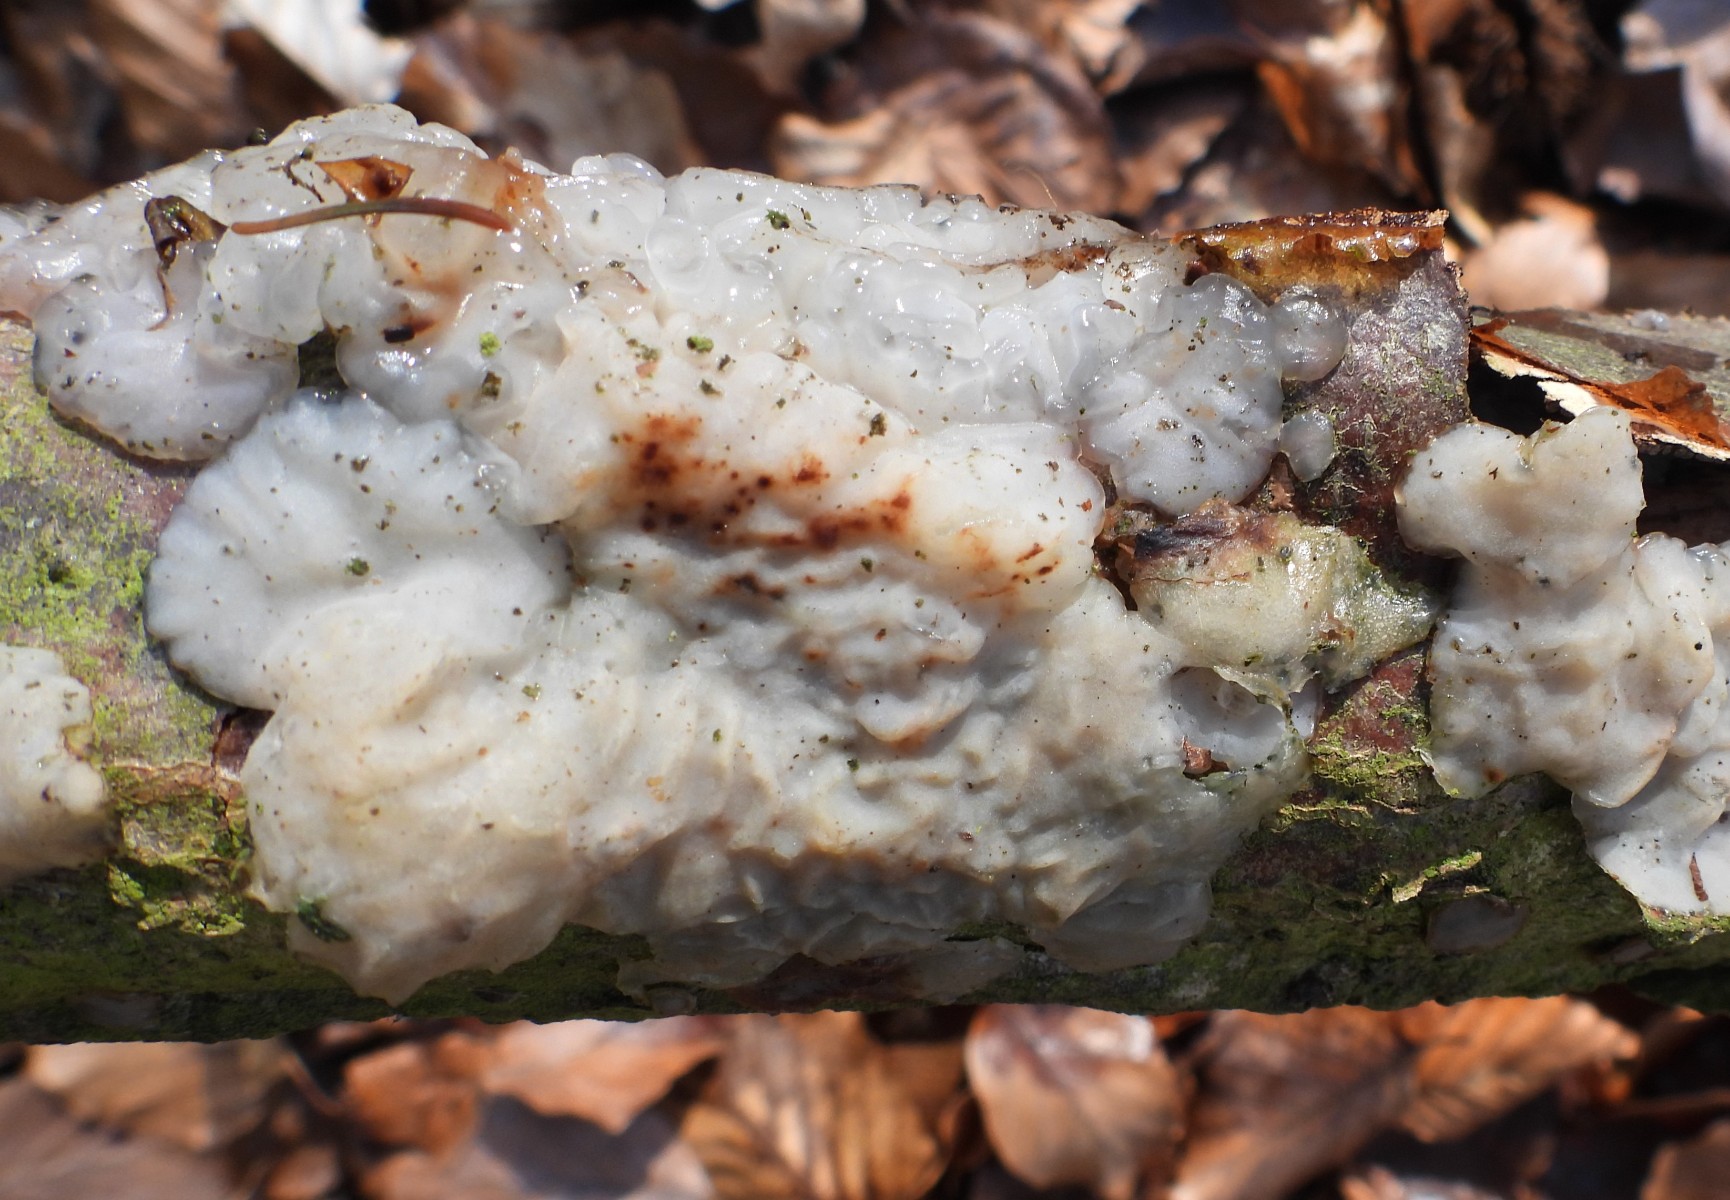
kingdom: Fungi
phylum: Basidiomycota
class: Agaricomycetes
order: Auriculariales
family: Auriculariaceae
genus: Exidia
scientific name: Exidia thuretiana
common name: hvidlig bævretop
